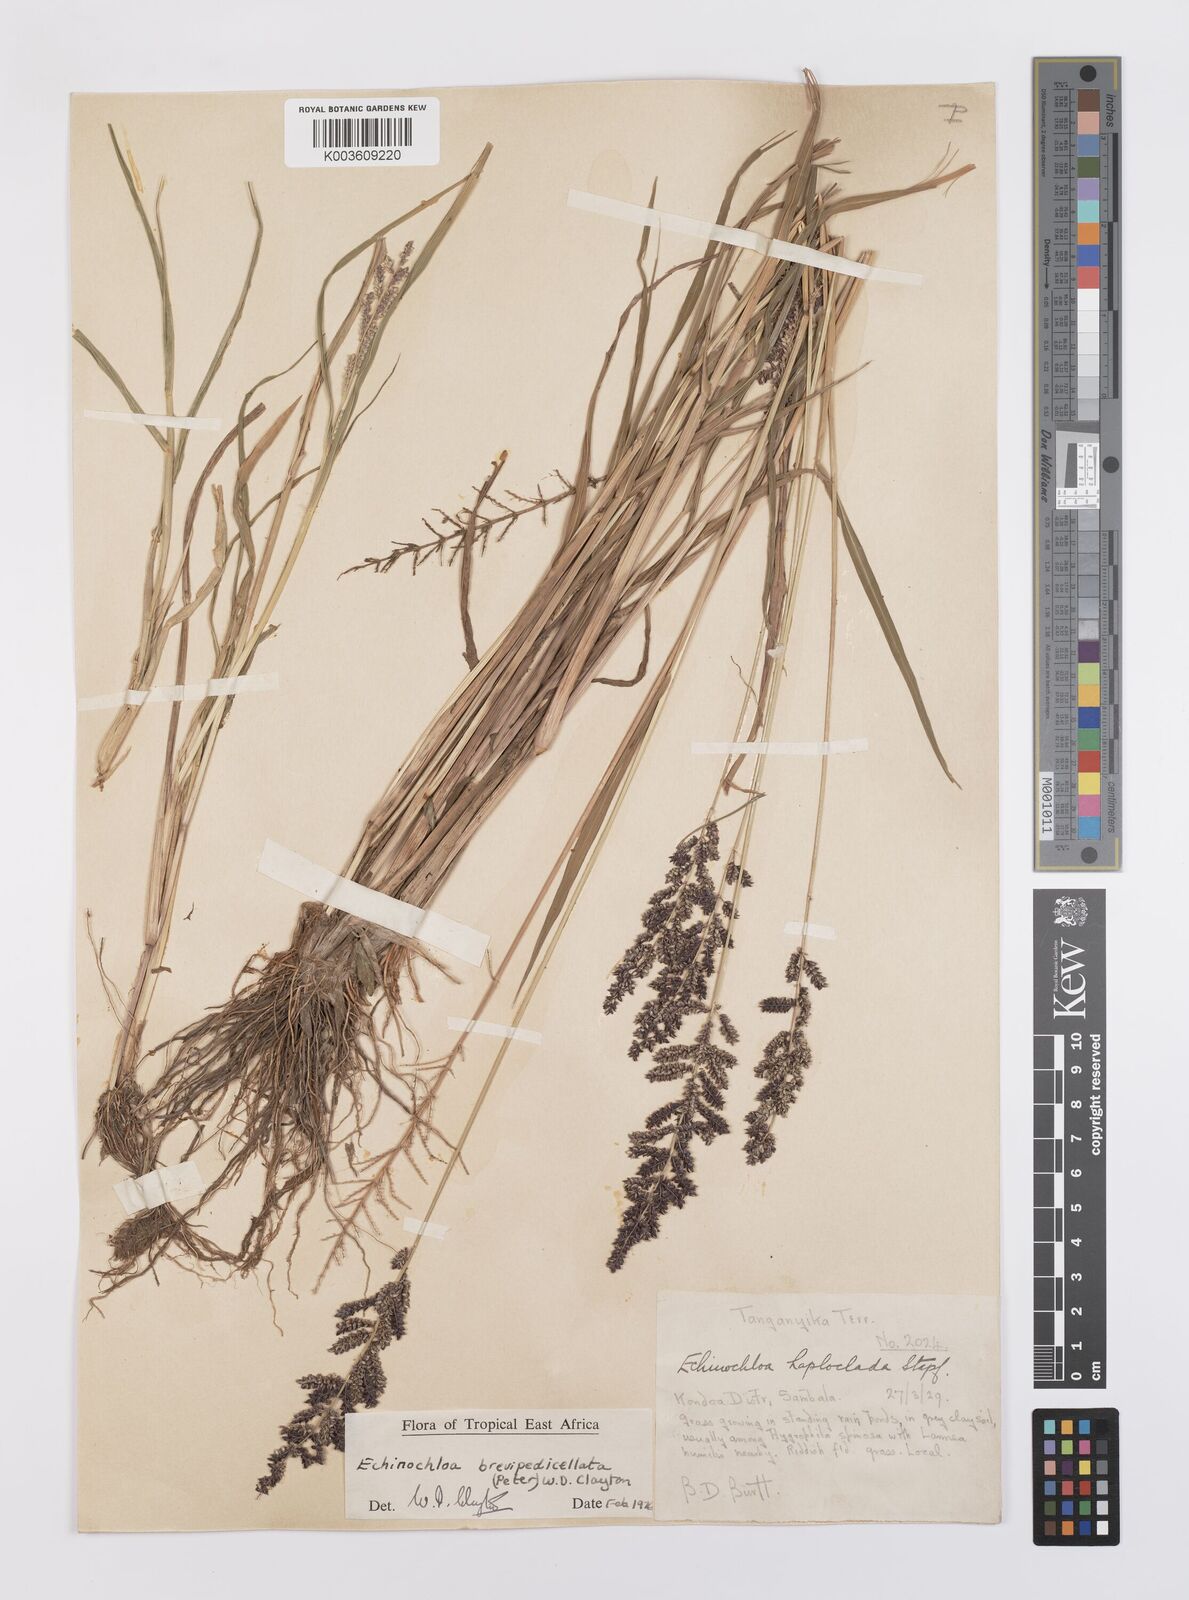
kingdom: Plantae
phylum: Tracheophyta
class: Liliopsida
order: Poales
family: Poaceae
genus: Echinochloa
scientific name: Echinochloa brevipedicellata
